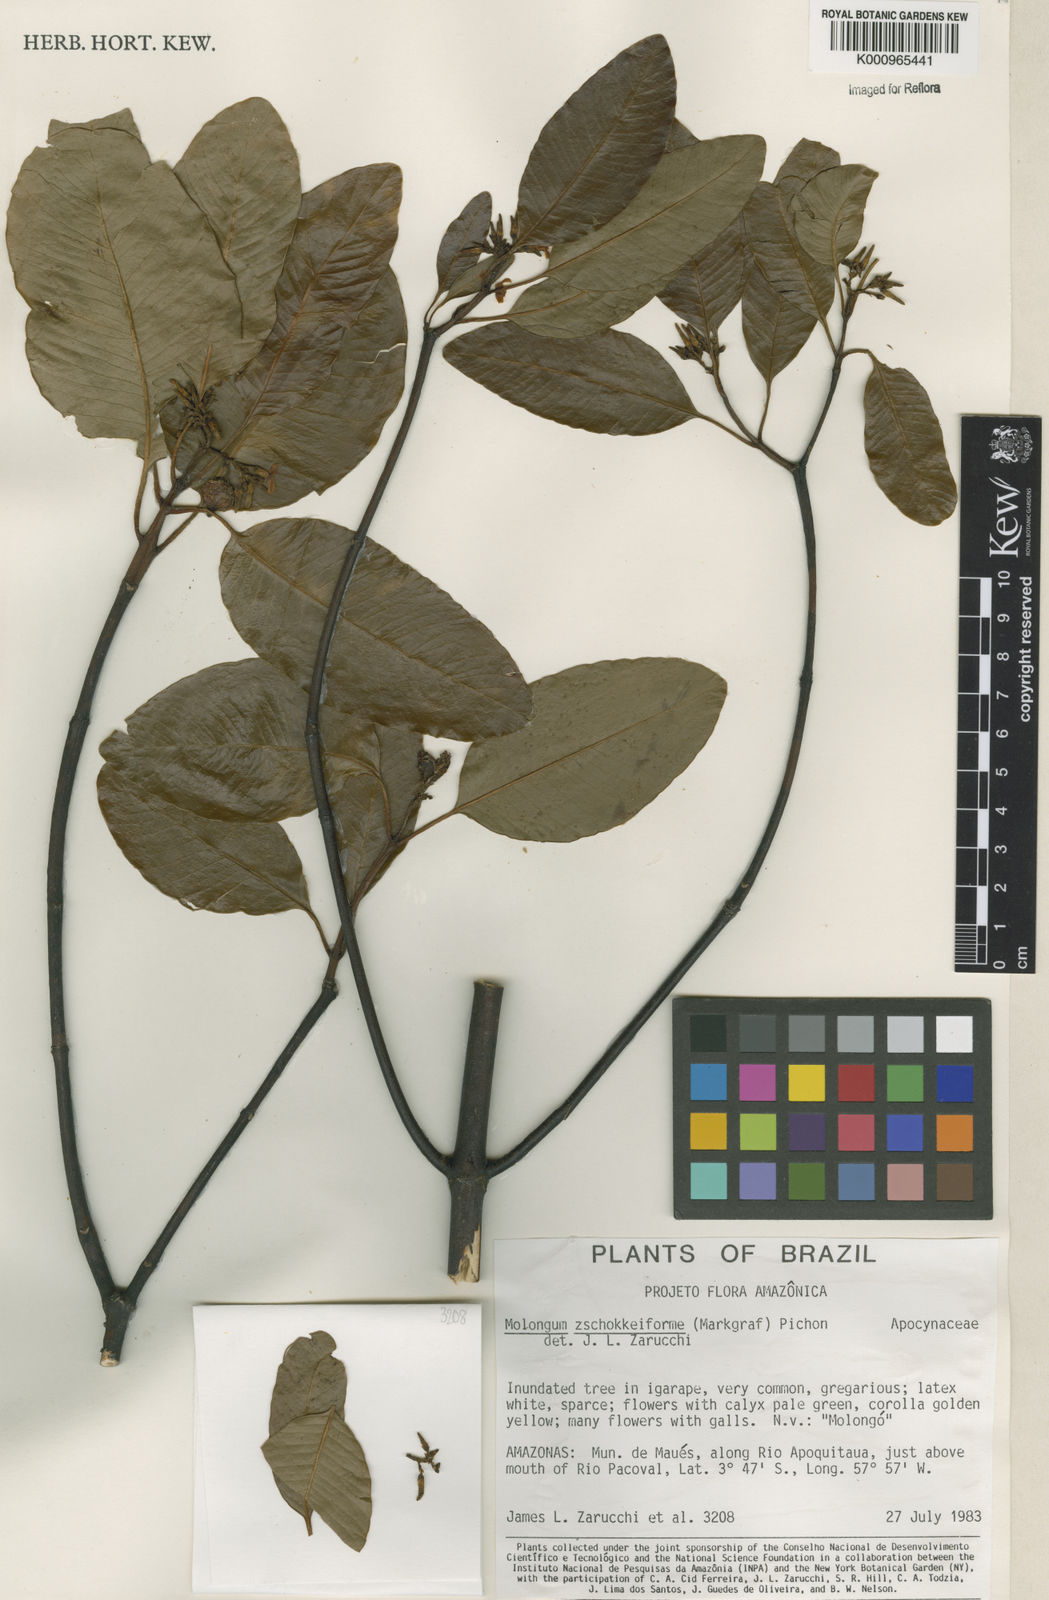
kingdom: Plantae
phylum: Tracheophyta
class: Magnoliopsida
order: Gentianales
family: Apocynaceae
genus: Molongum
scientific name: Molongum zschokkeiforme
